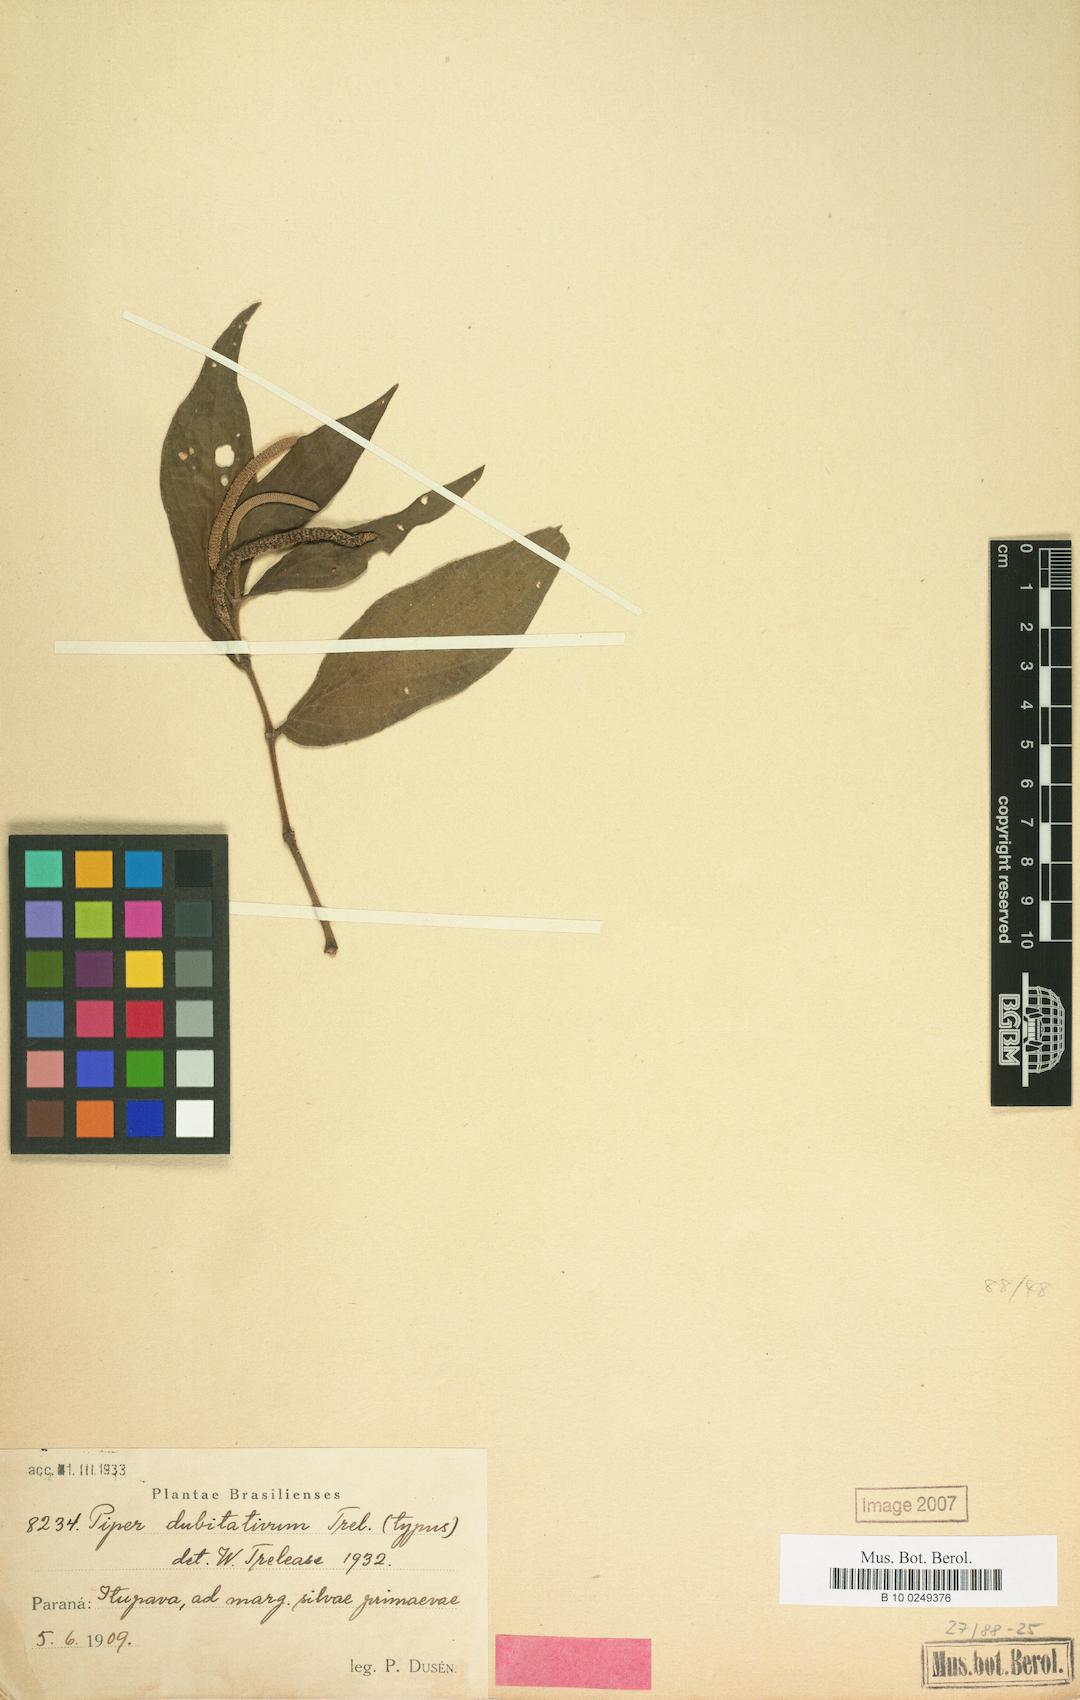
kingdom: Plantae
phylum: Tracheophyta
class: Magnoliopsida
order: Piperales
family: Piperaceae
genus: Piper
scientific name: Piper
